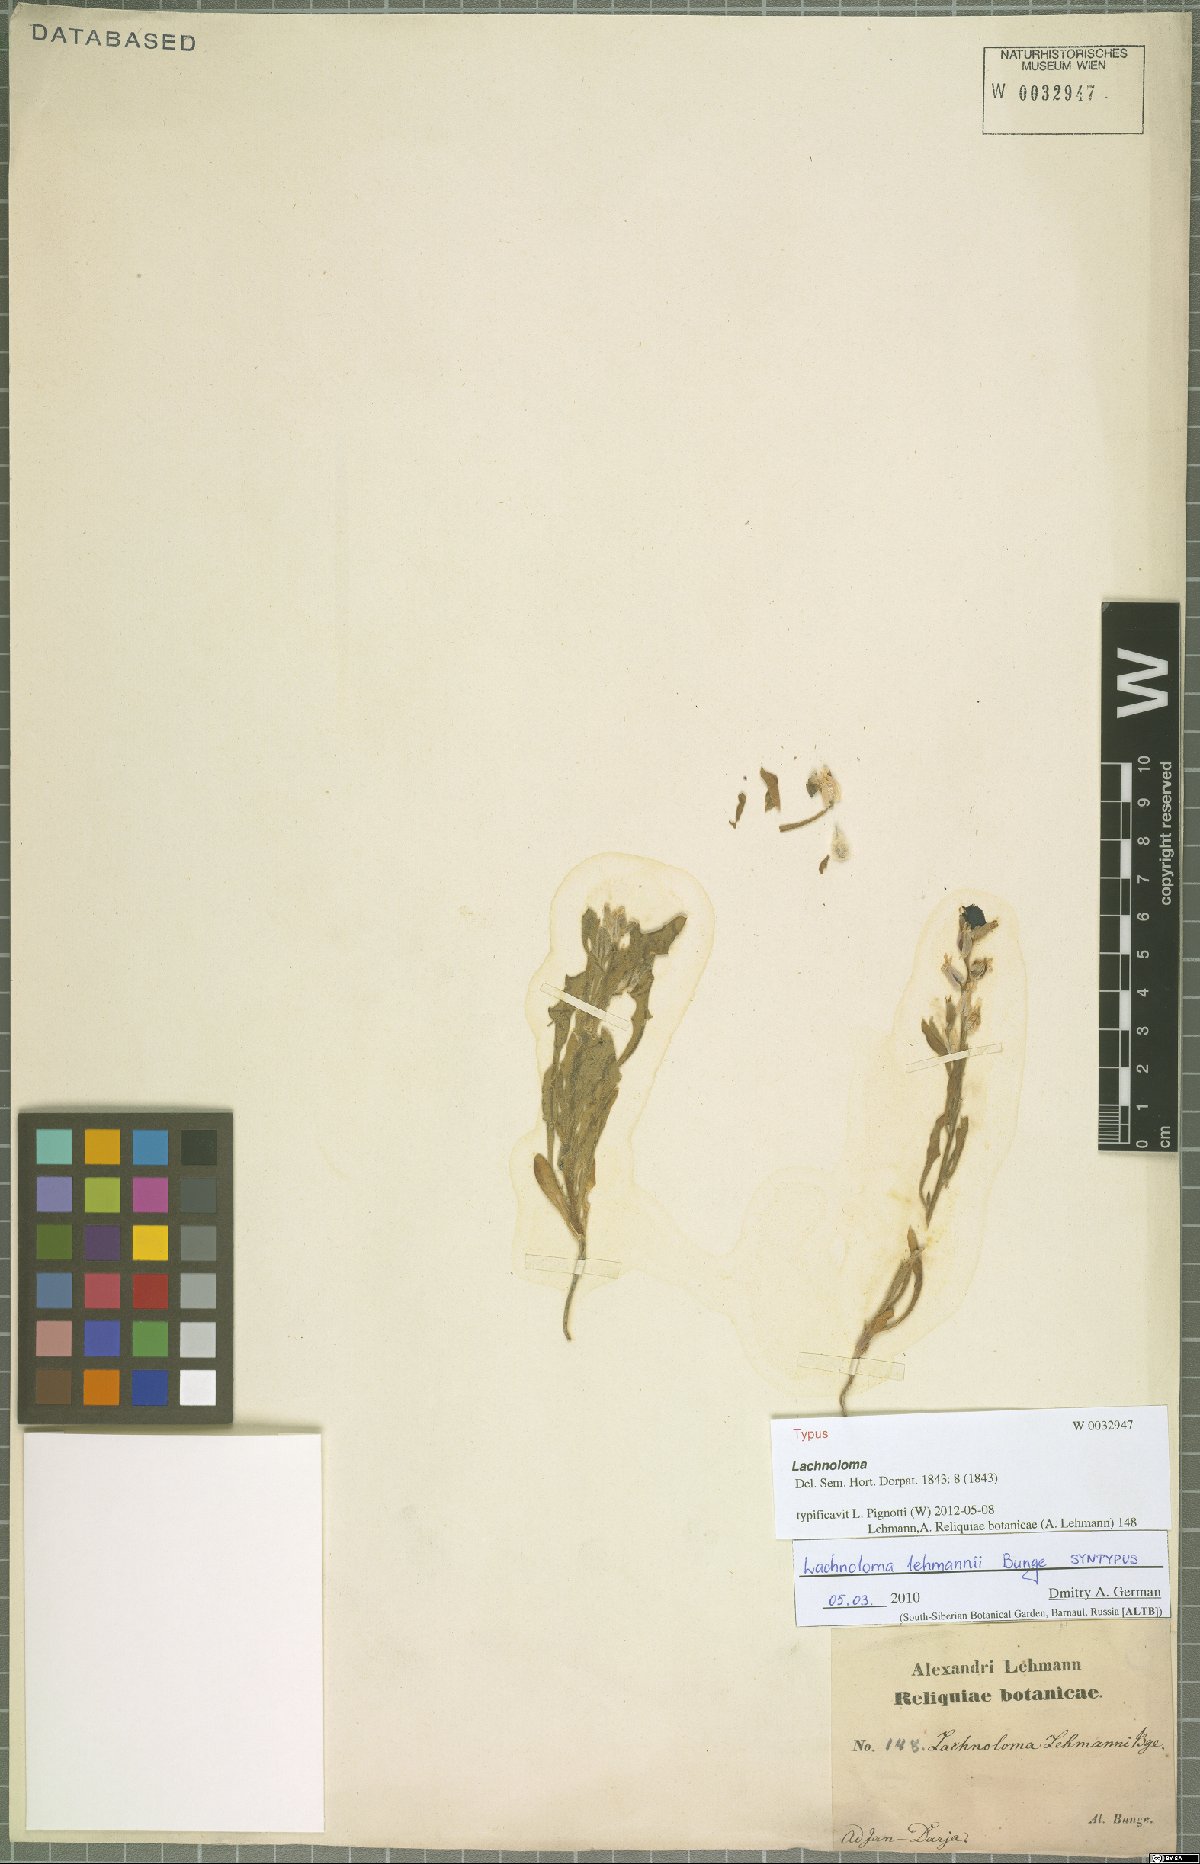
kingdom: Plantae
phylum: Tracheophyta
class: Magnoliopsida
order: Brassicales
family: Brassicaceae
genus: Lachnoloma
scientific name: Lachnoloma lehmannii
